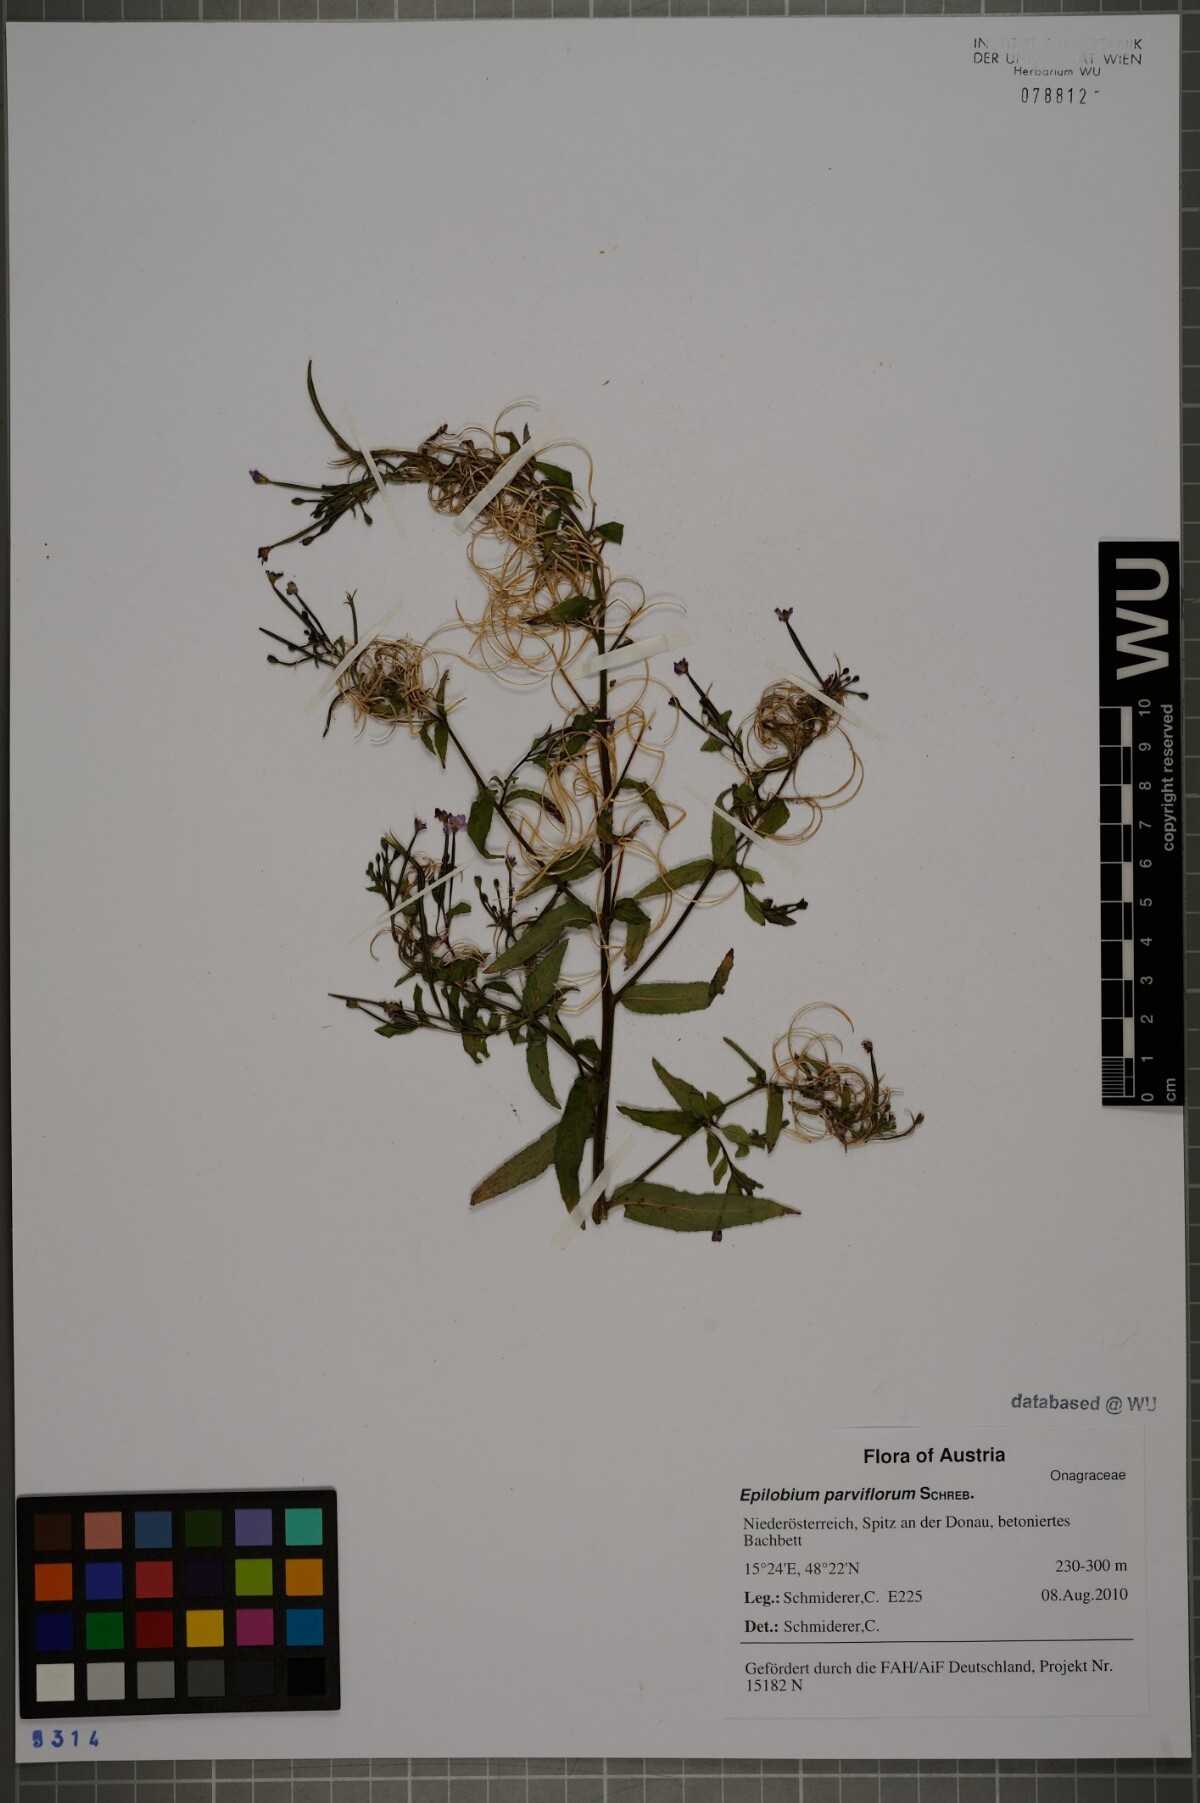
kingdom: Plantae
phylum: Tracheophyta
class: Magnoliopsida
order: Myrtales
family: Onagraceae
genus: Epilobium
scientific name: Epilobium parviflorum
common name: Hoary willowherb
